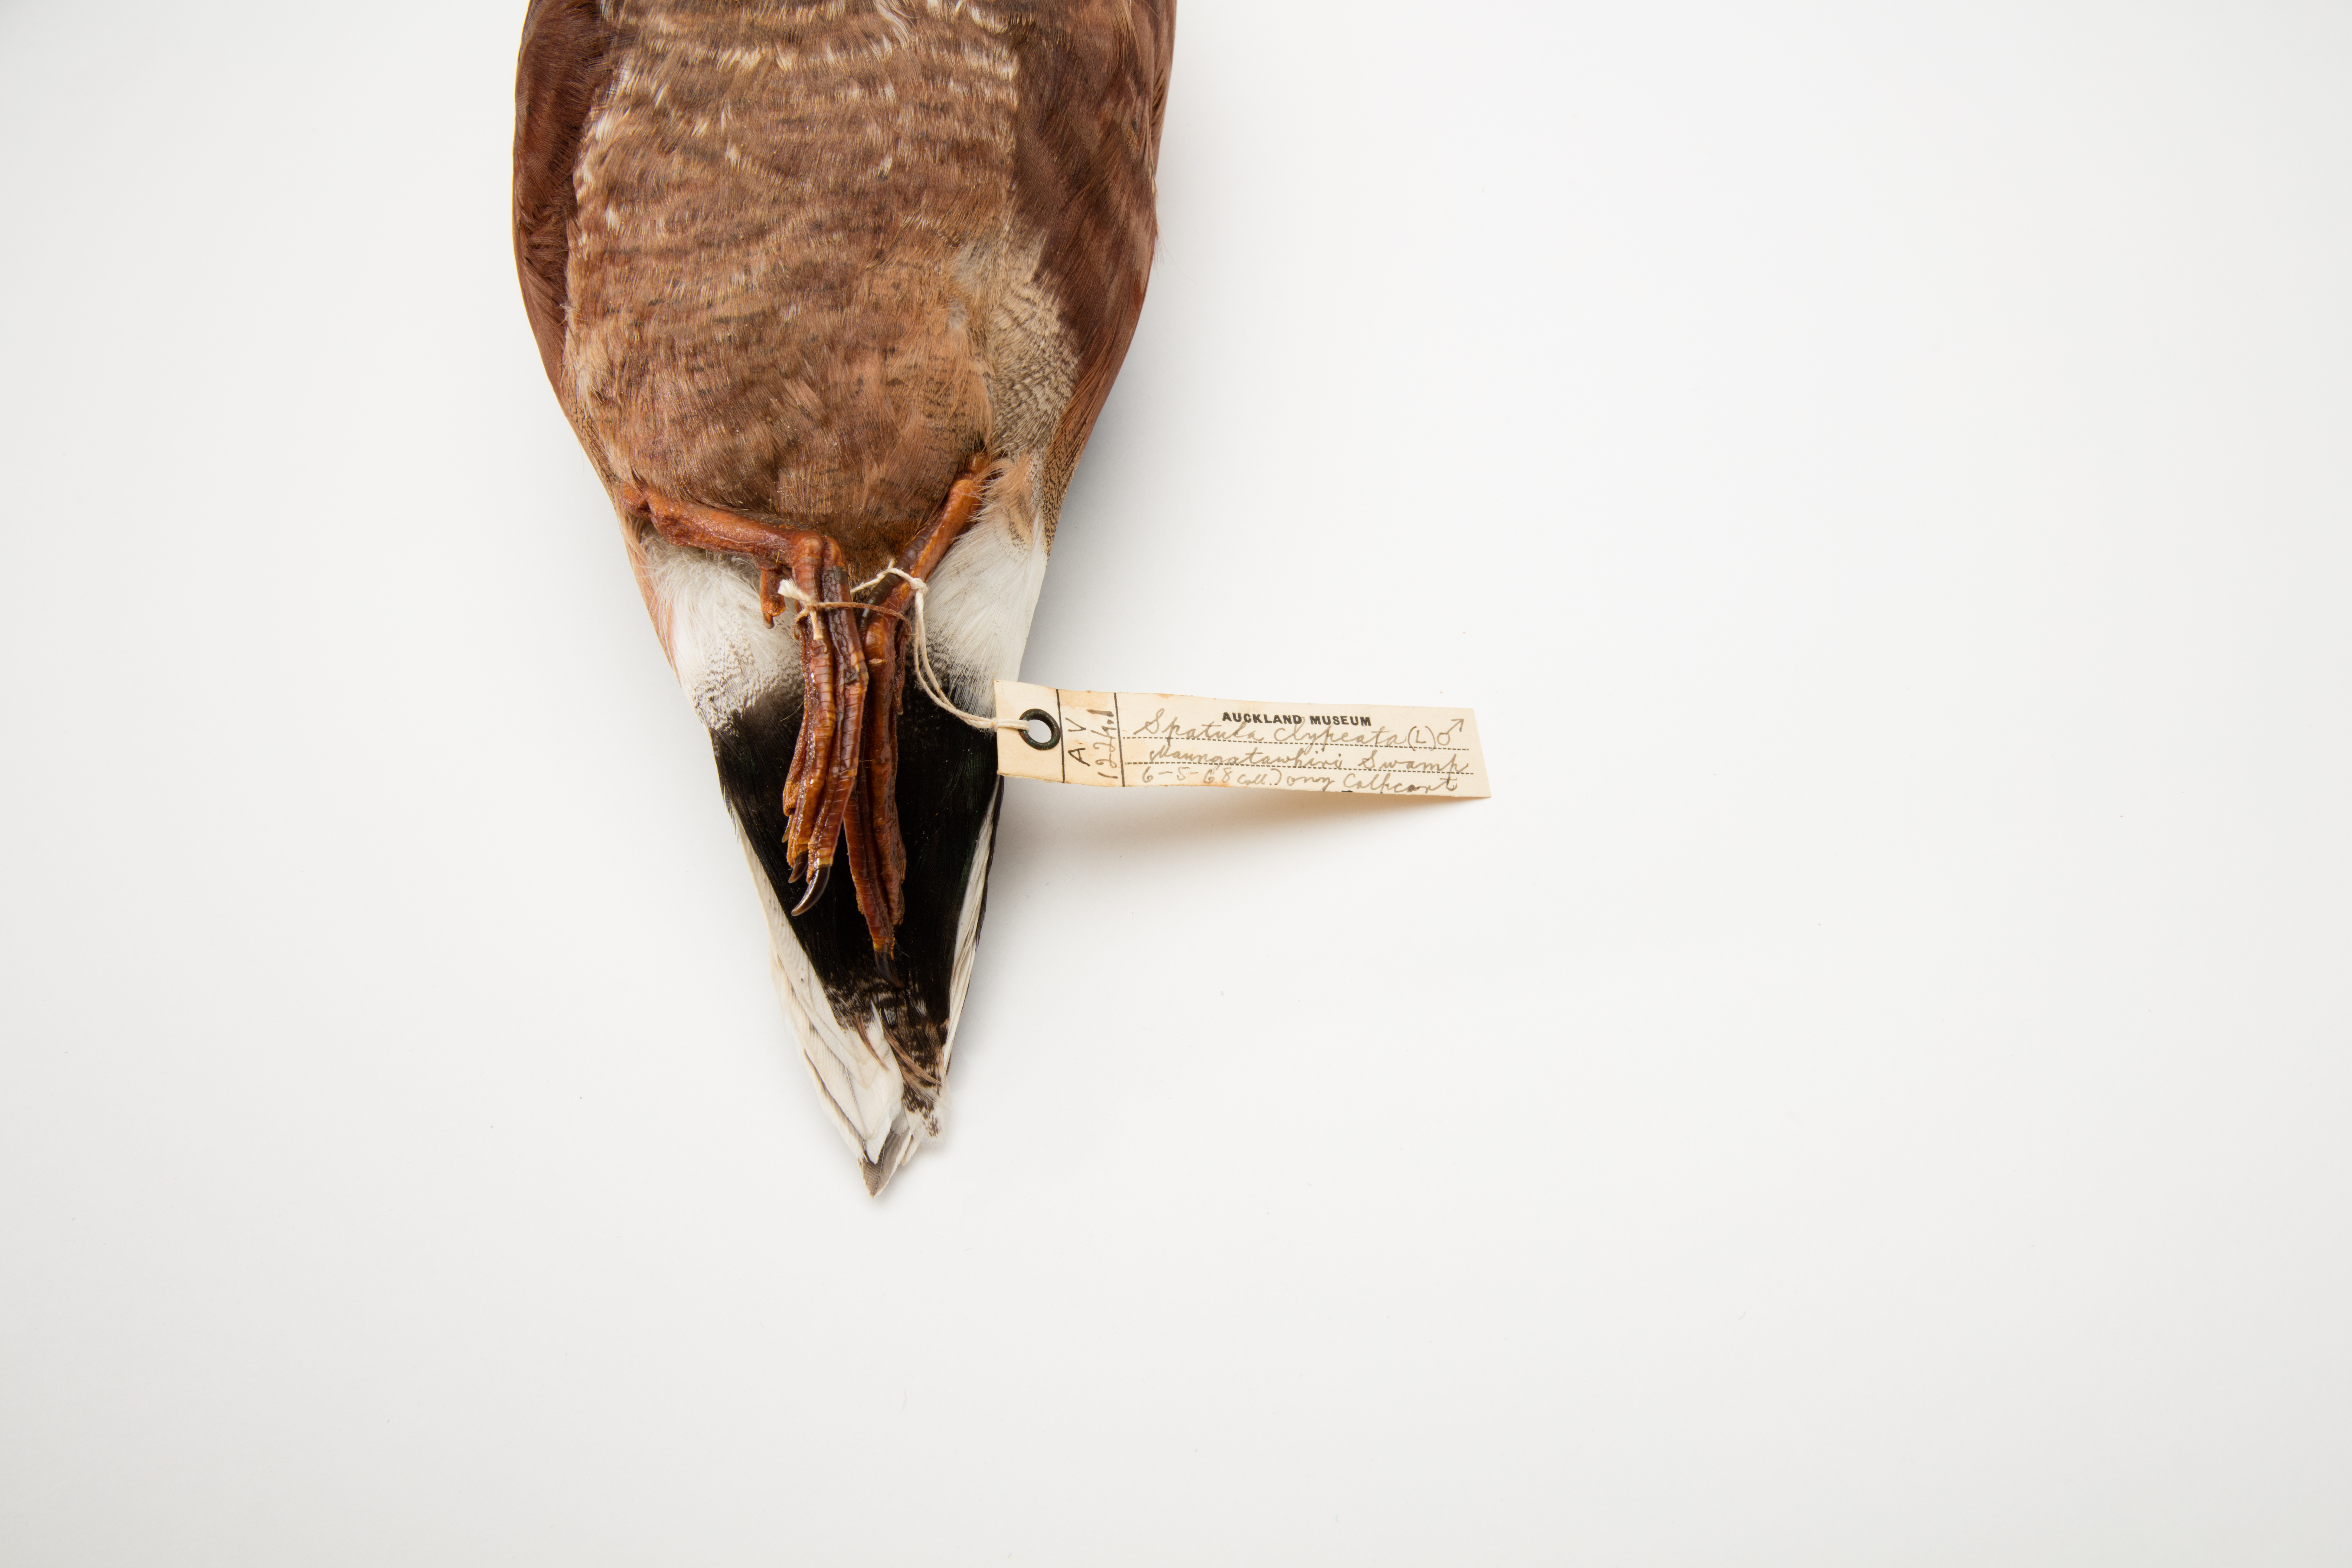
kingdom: Animalia
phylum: Chordata
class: Aves
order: Anseriformes
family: Anatidae
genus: Spatula
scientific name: Spatula clypeata
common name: Northern shoveler
